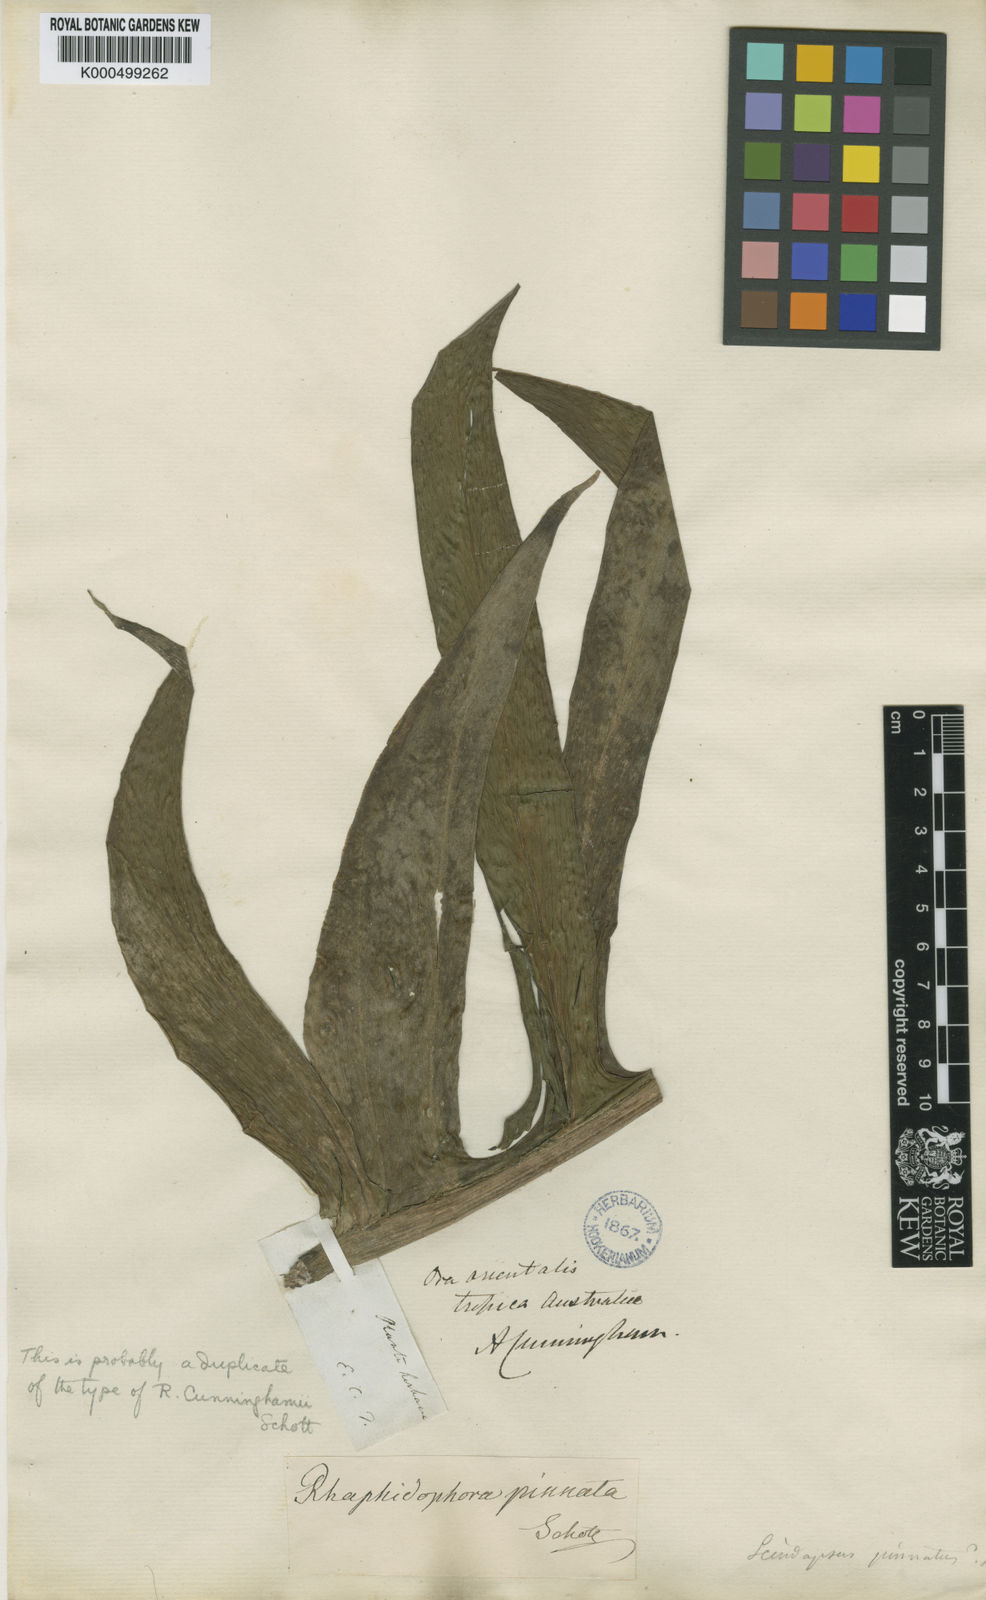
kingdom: Plantae
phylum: Tracheophyta
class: Liliopsida
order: Alismatales
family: Araceae
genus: Epipremnum
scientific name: Epipremnum pinnatum
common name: Centipede tongavine
